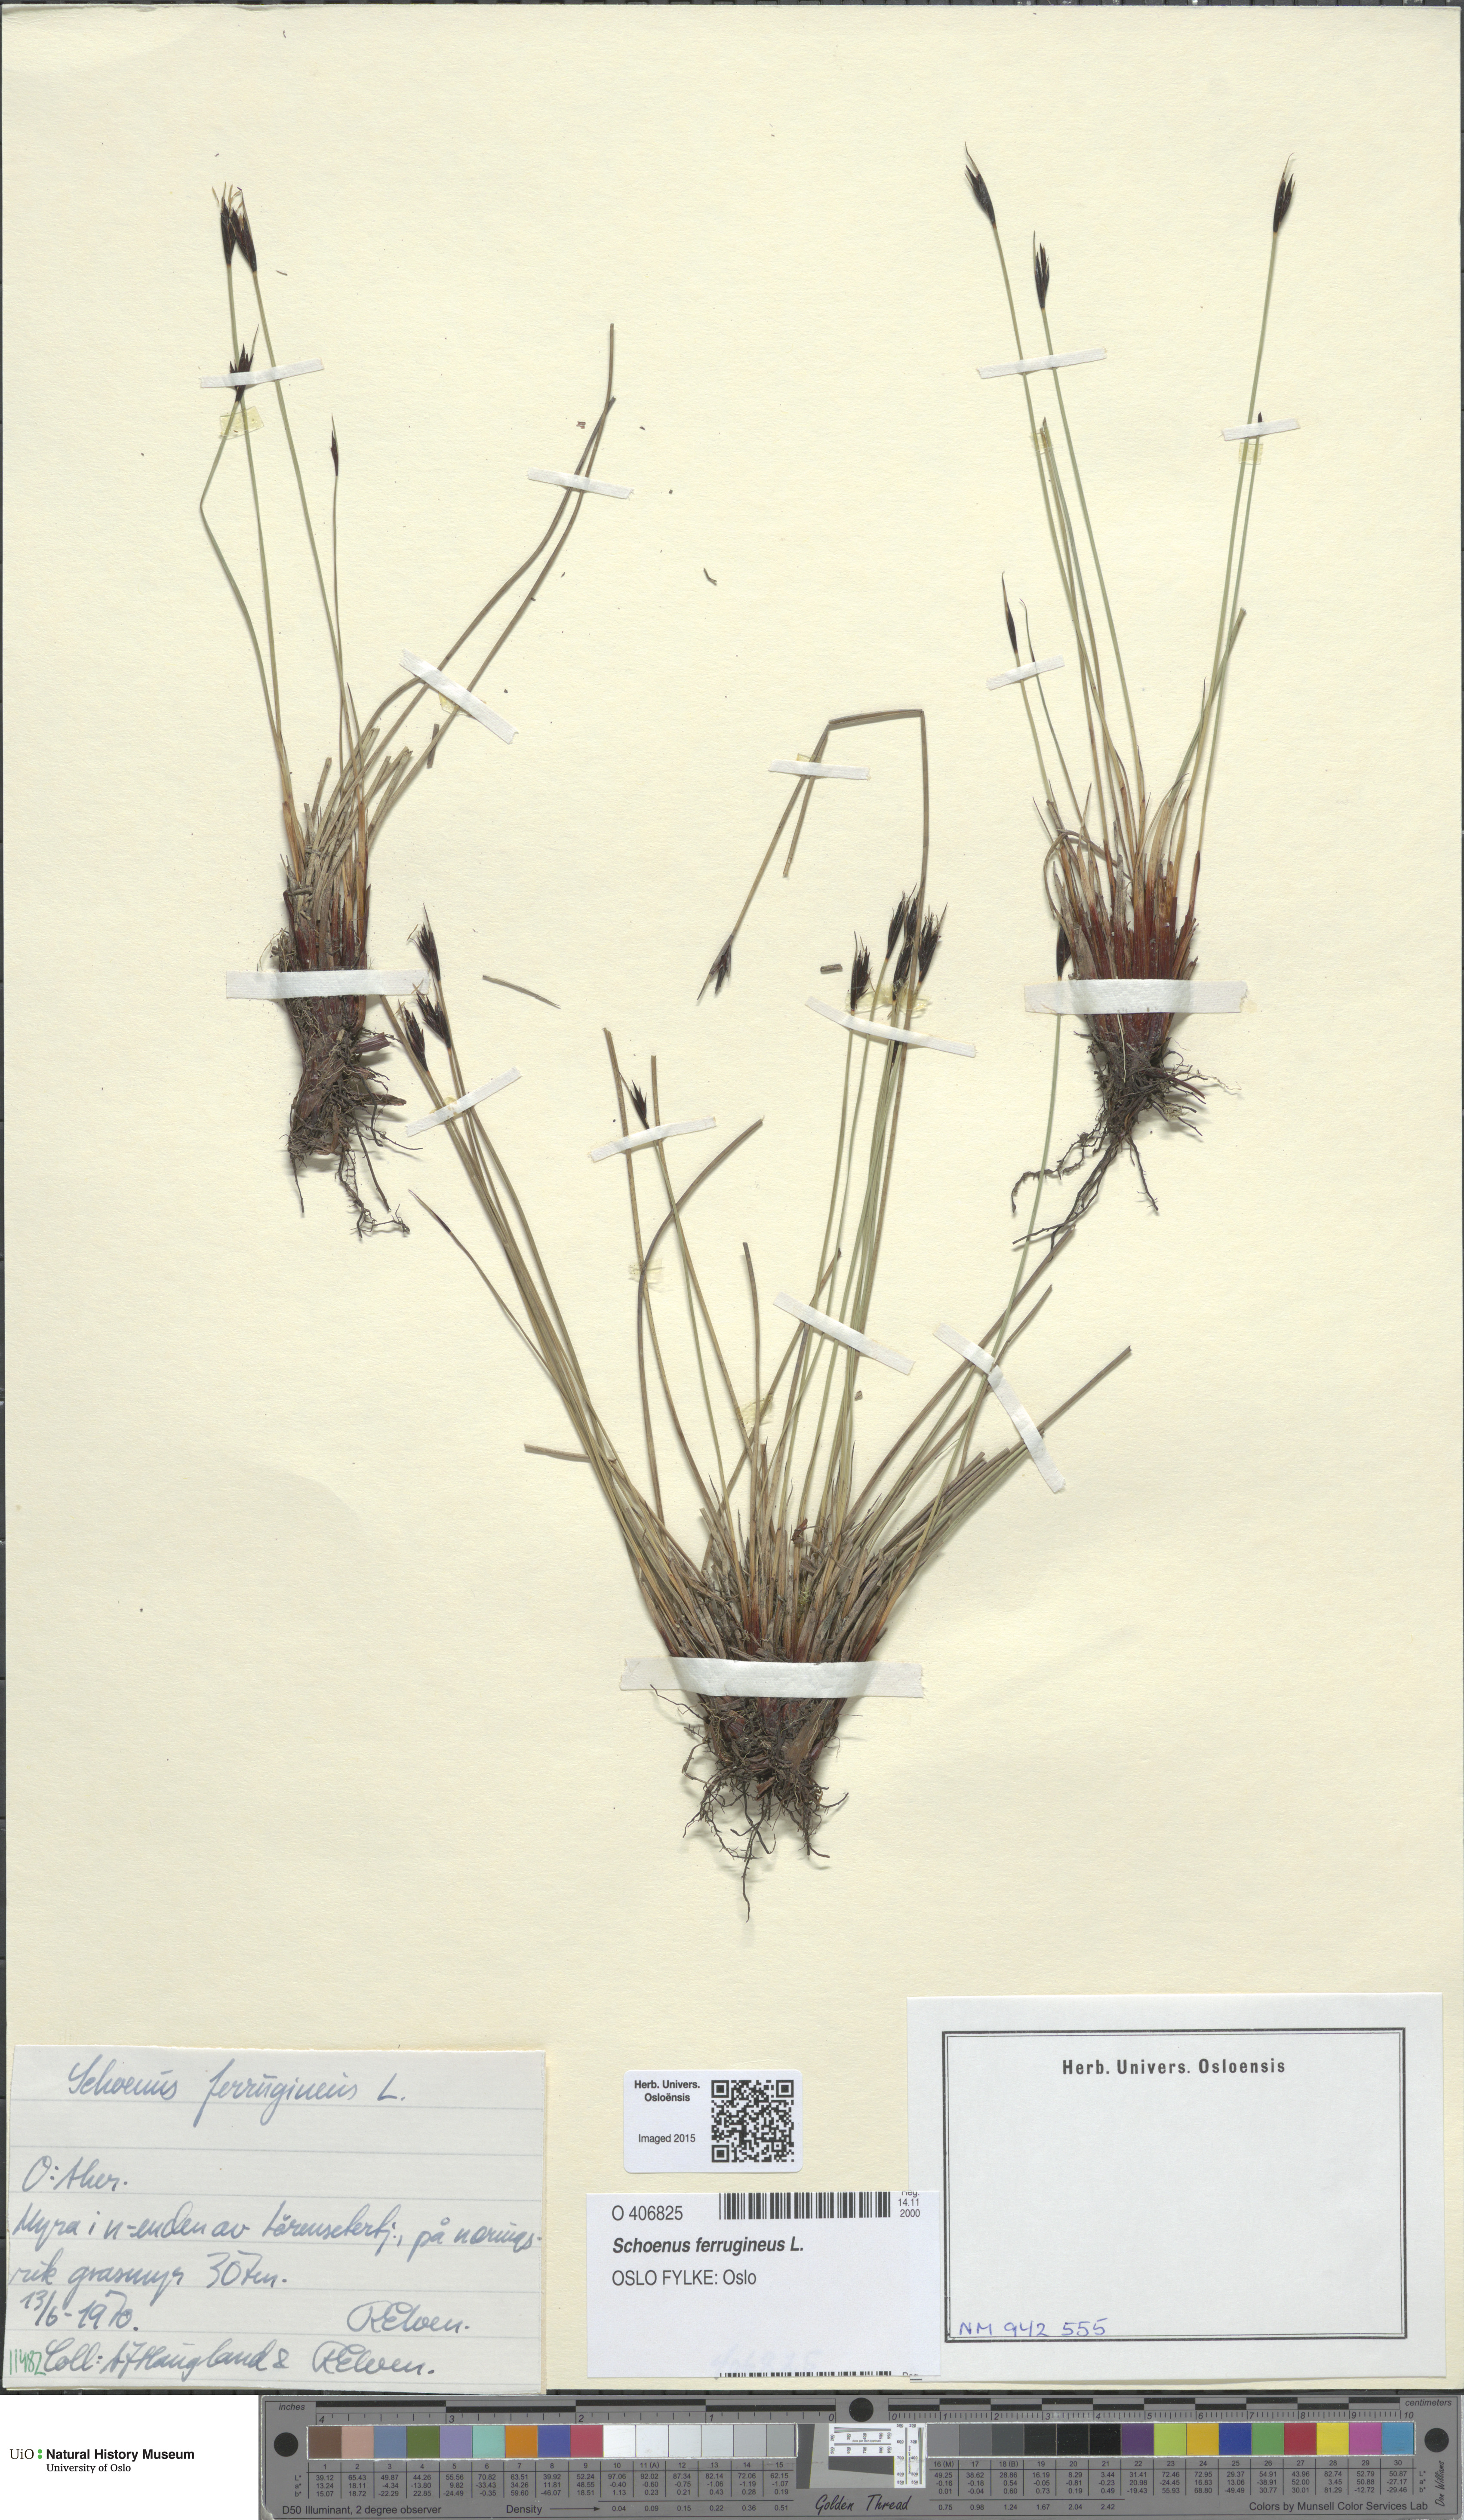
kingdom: Plantae
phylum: Tracheophyta
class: Liliopsida
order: Poales
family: Cyperaceae
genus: Schoenus
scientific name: Schoenus ferrugineus
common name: Brown bog-rush
